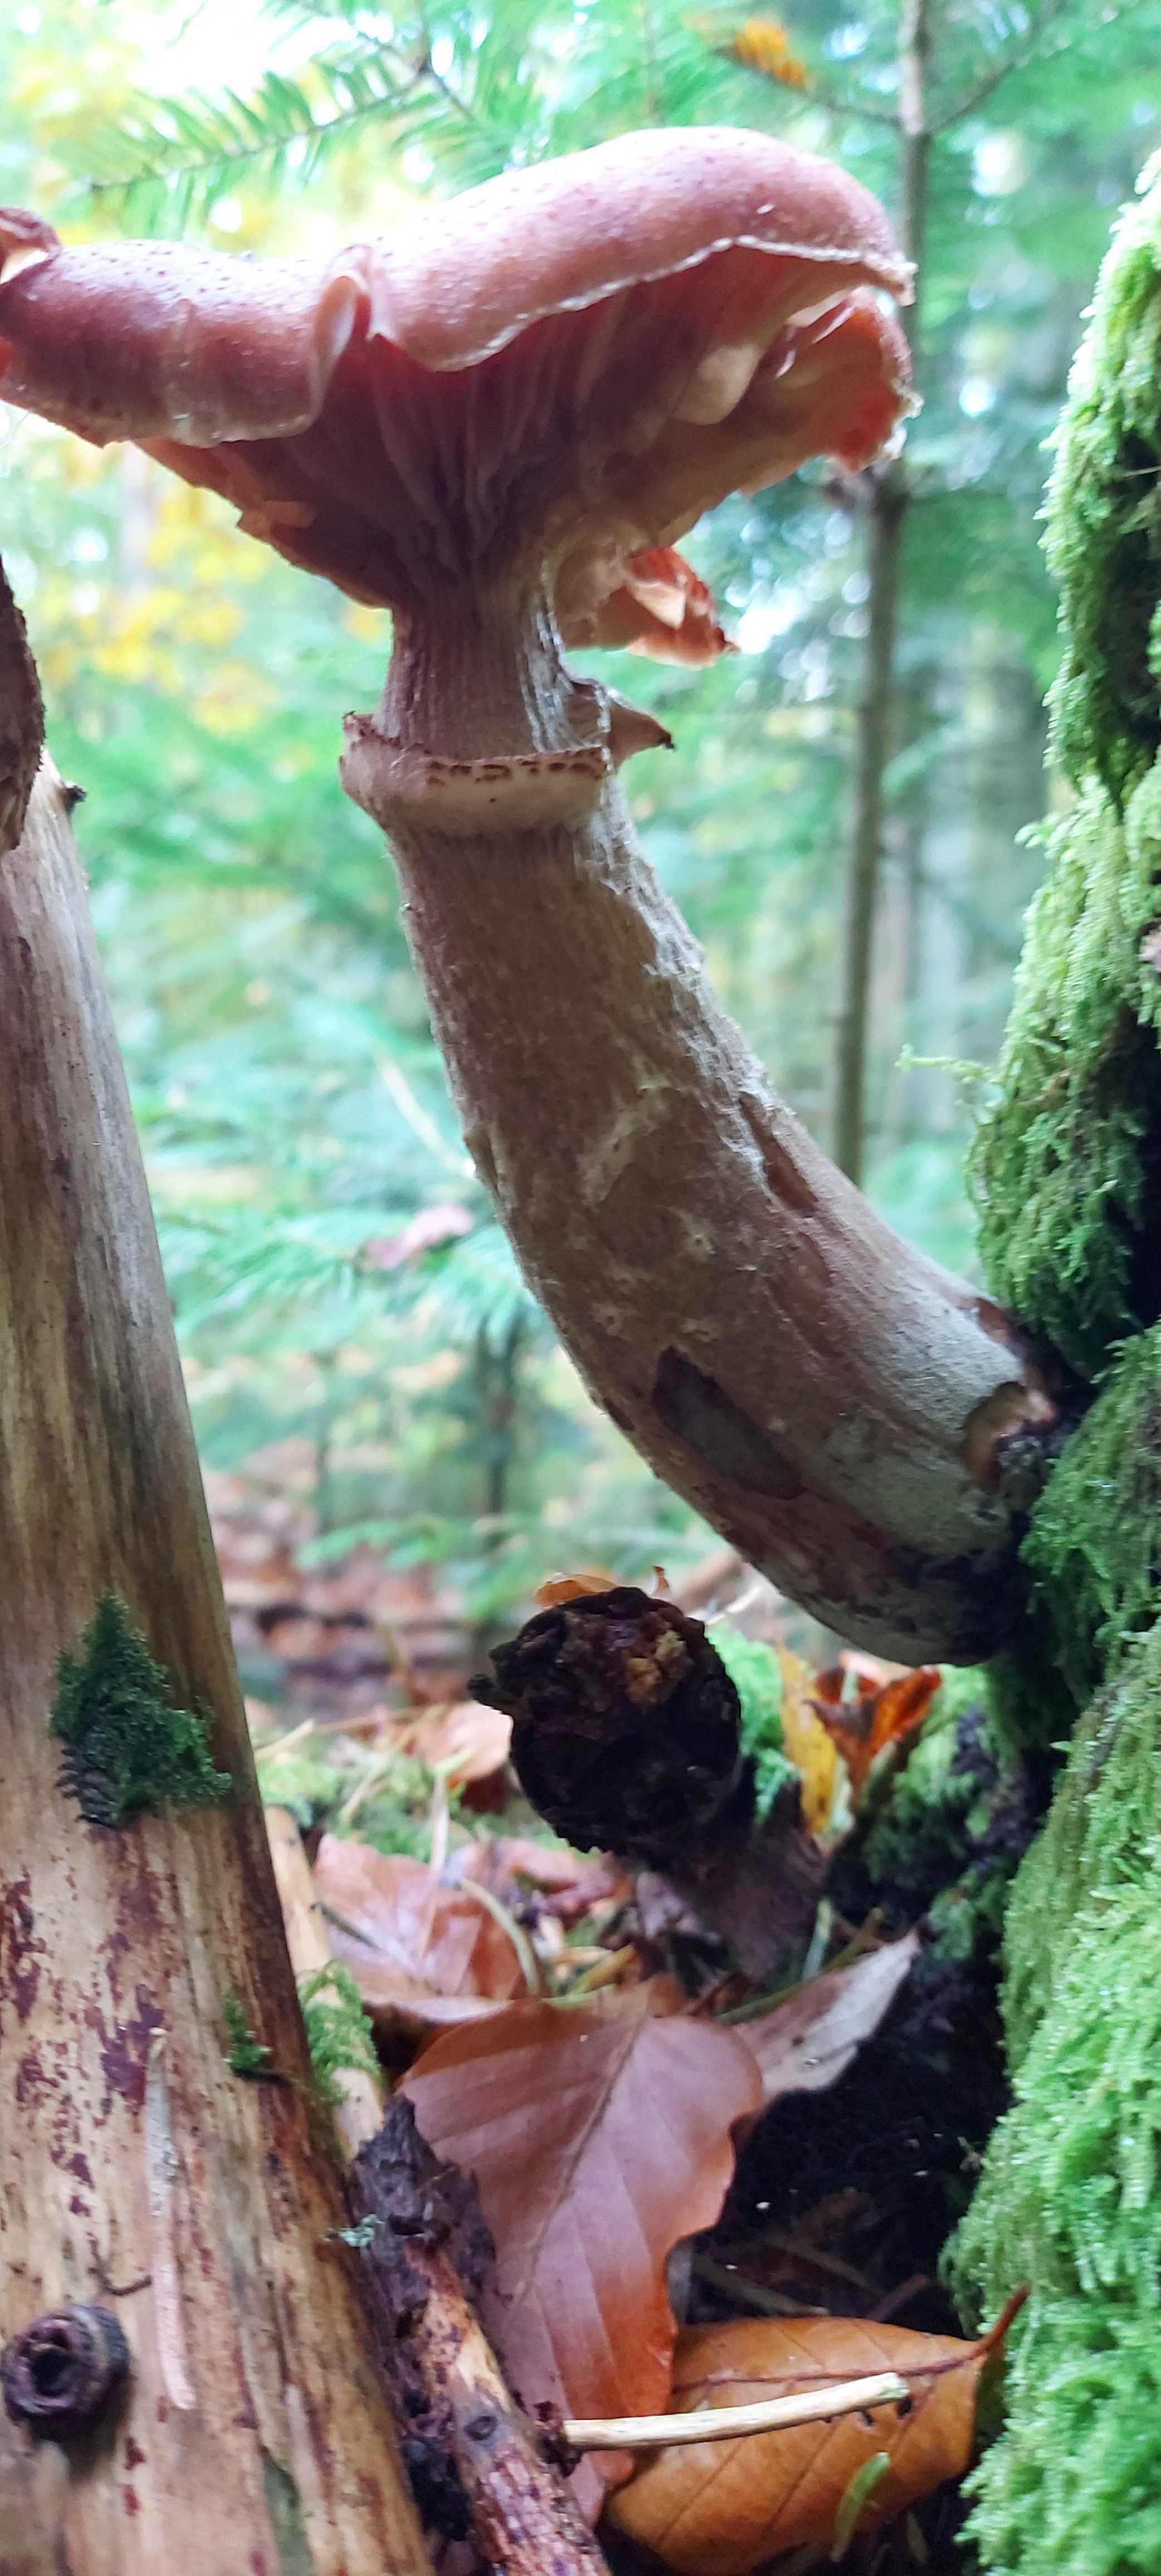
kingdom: Fungi
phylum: Basidiomycota
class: Agaricomycetes
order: Agaricales
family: Physalacriaceae
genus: Armillaria
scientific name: Armillaria ostoyae
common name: mørk honningsvamp
